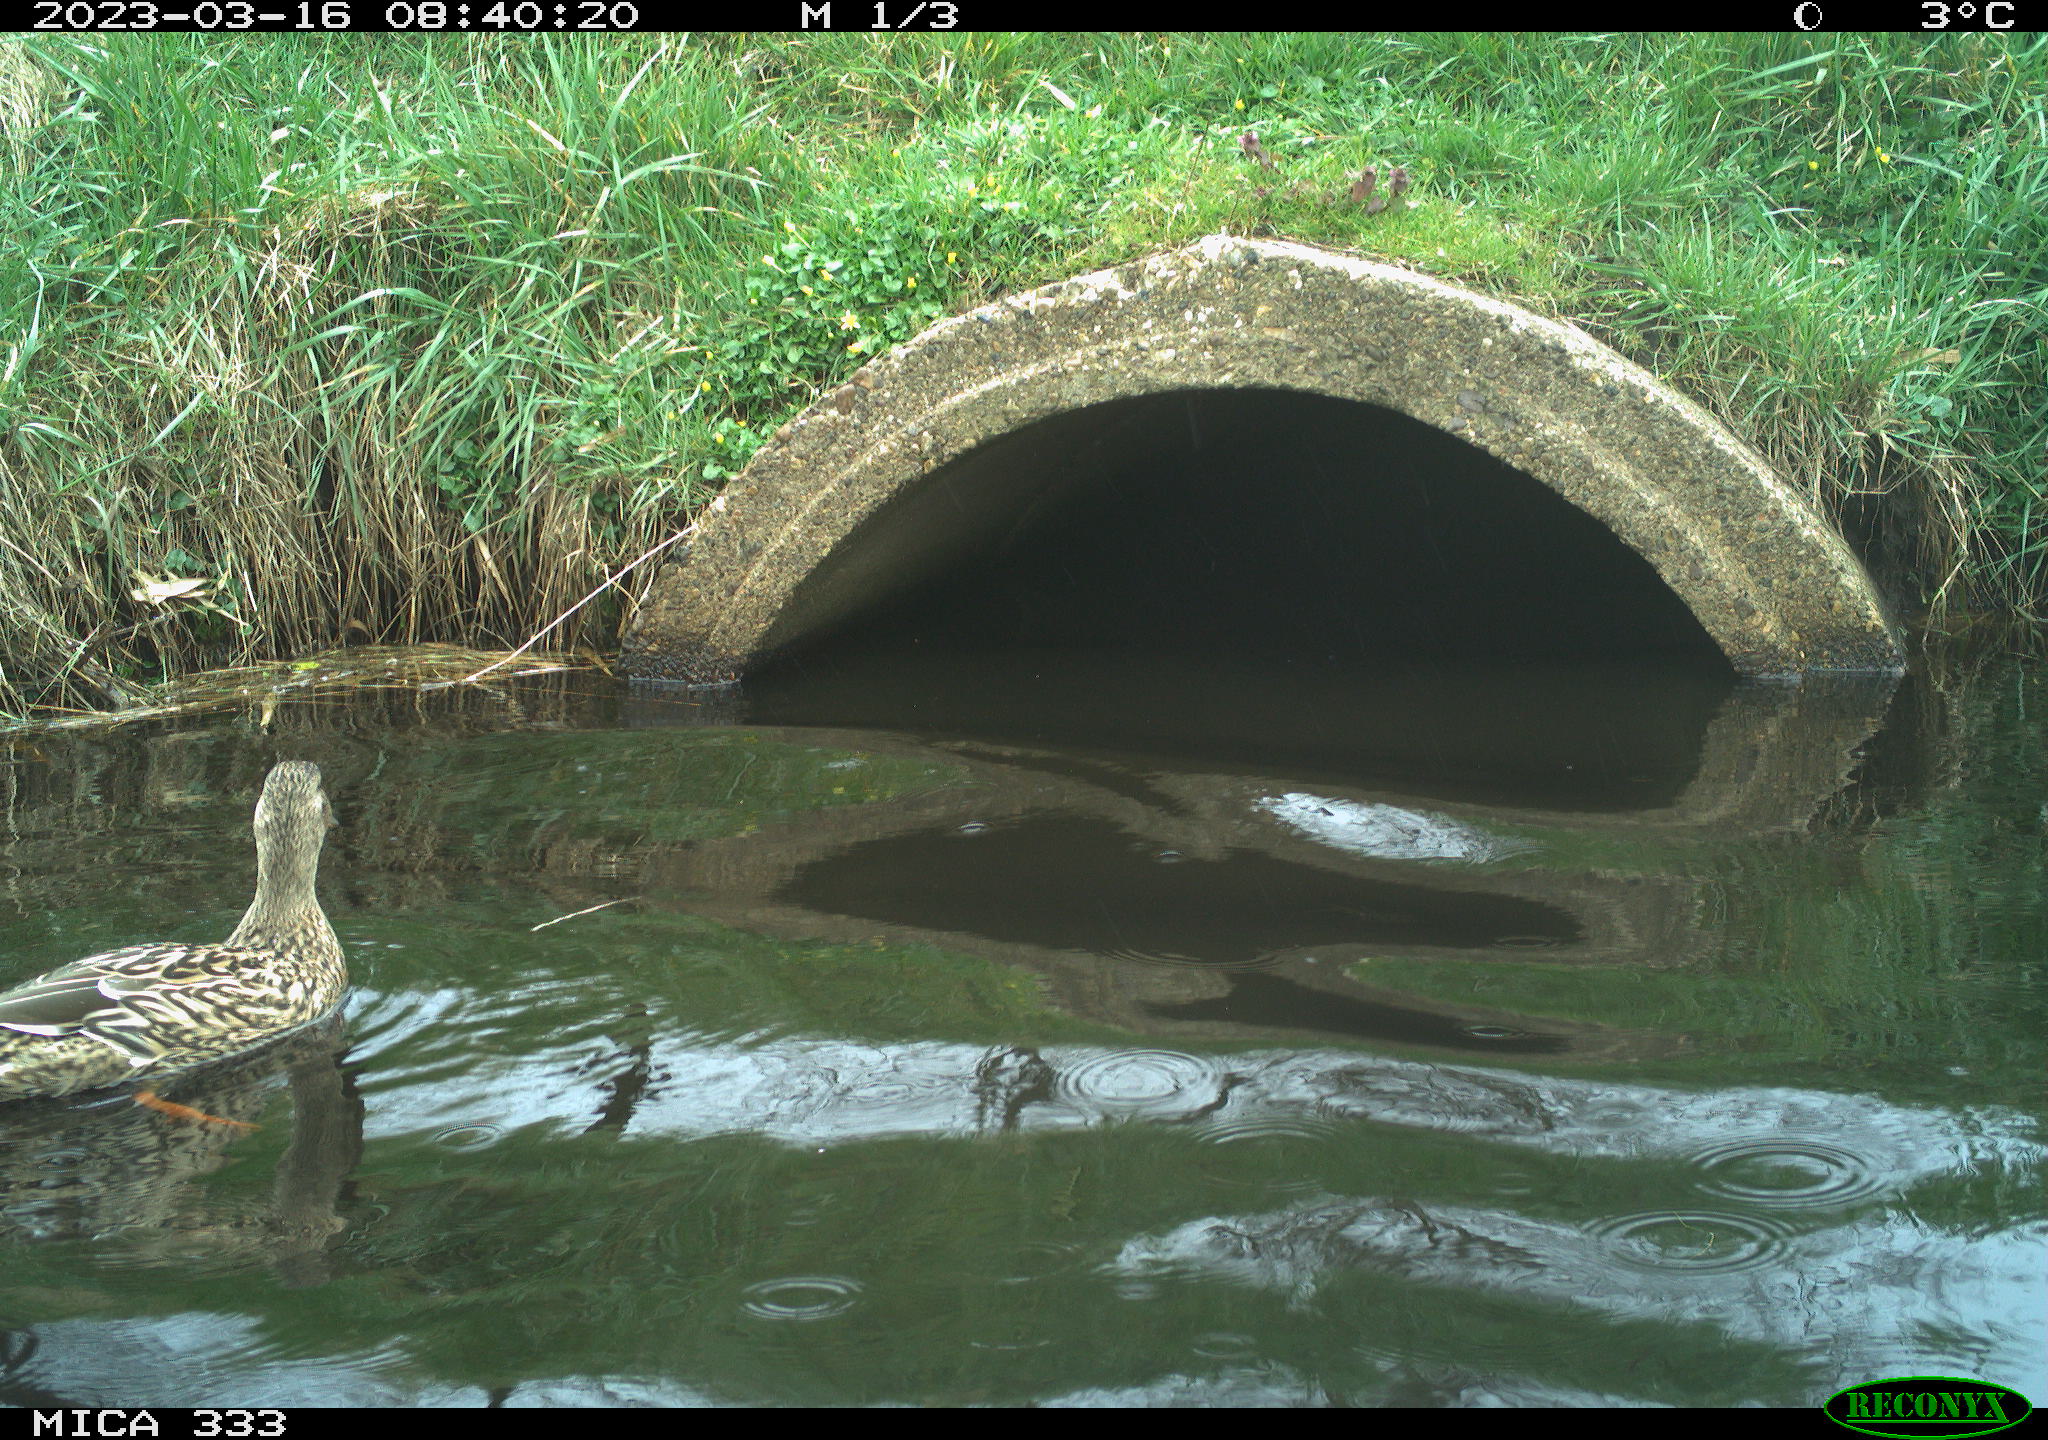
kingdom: Animalia
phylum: Chordata
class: Aves
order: Anseriformes
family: Anatidae
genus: Anas
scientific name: Anas
